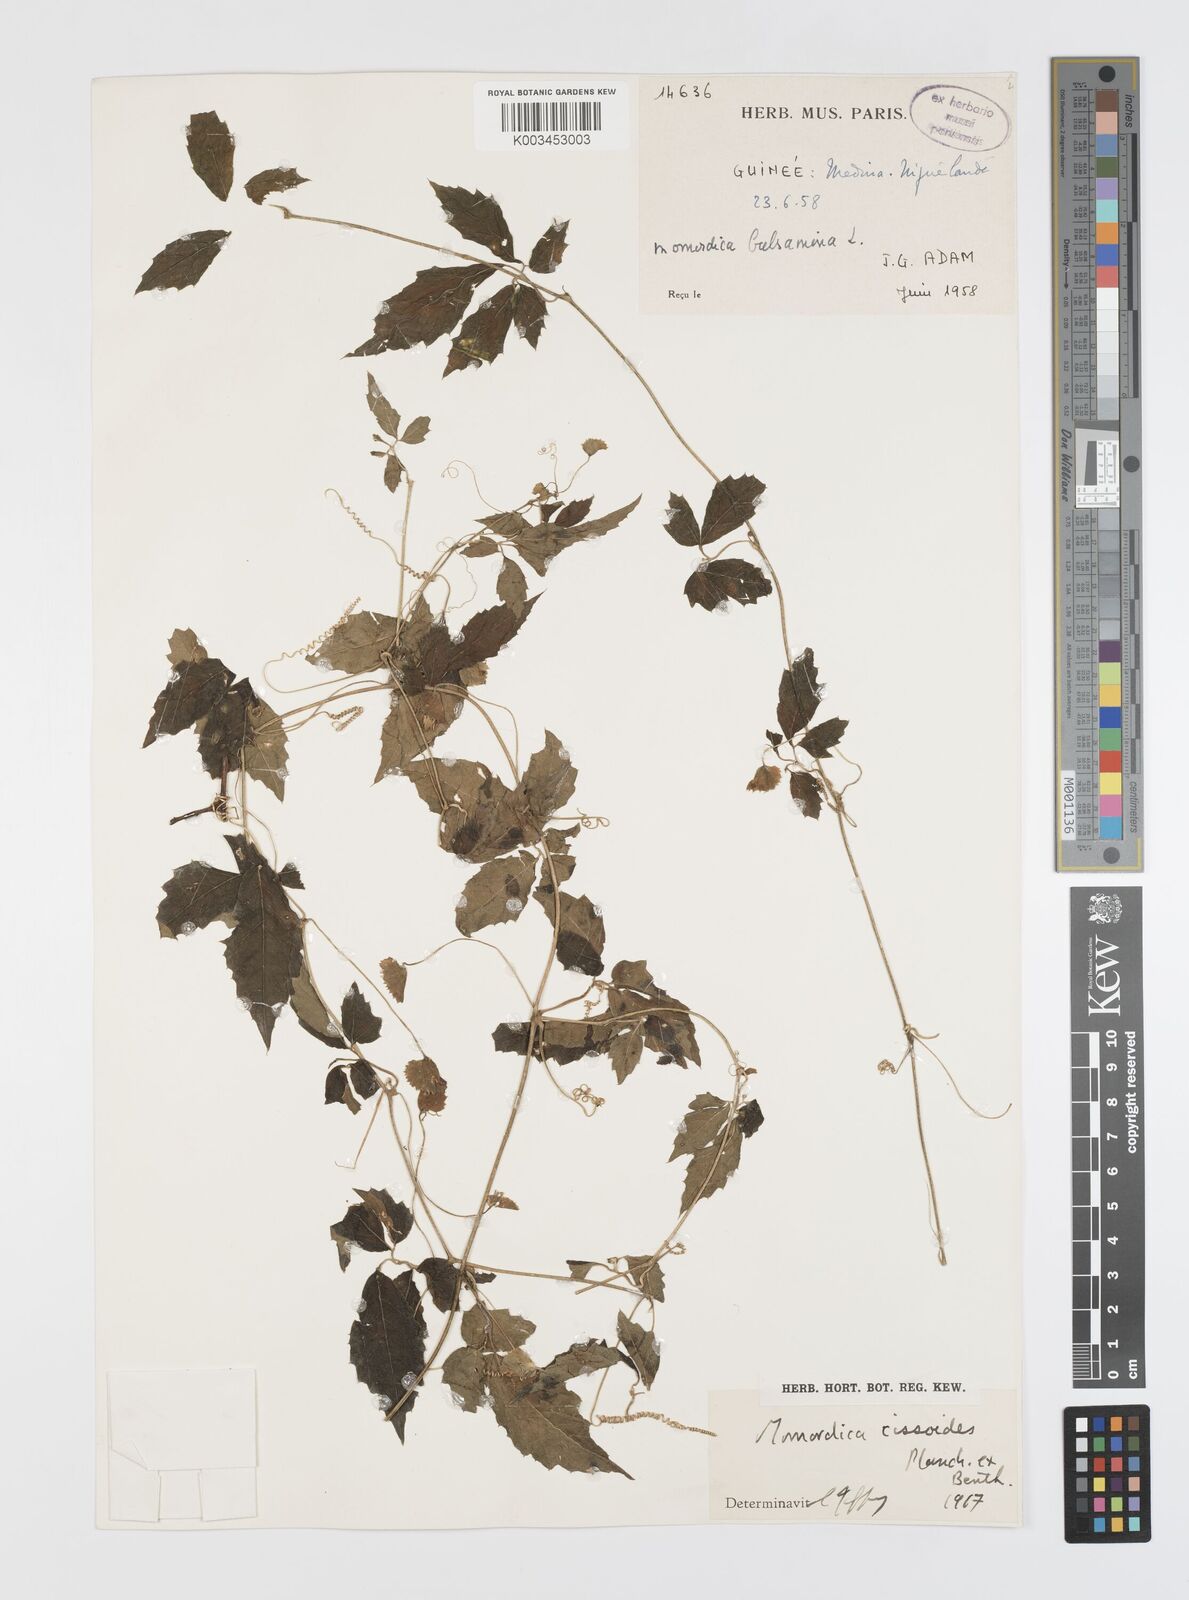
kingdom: Plantae
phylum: Tracheophyta
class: Magnoliopsida
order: Cucurbitales
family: Cucurbitaceae
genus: Momordica
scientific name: Momordica cissoides
